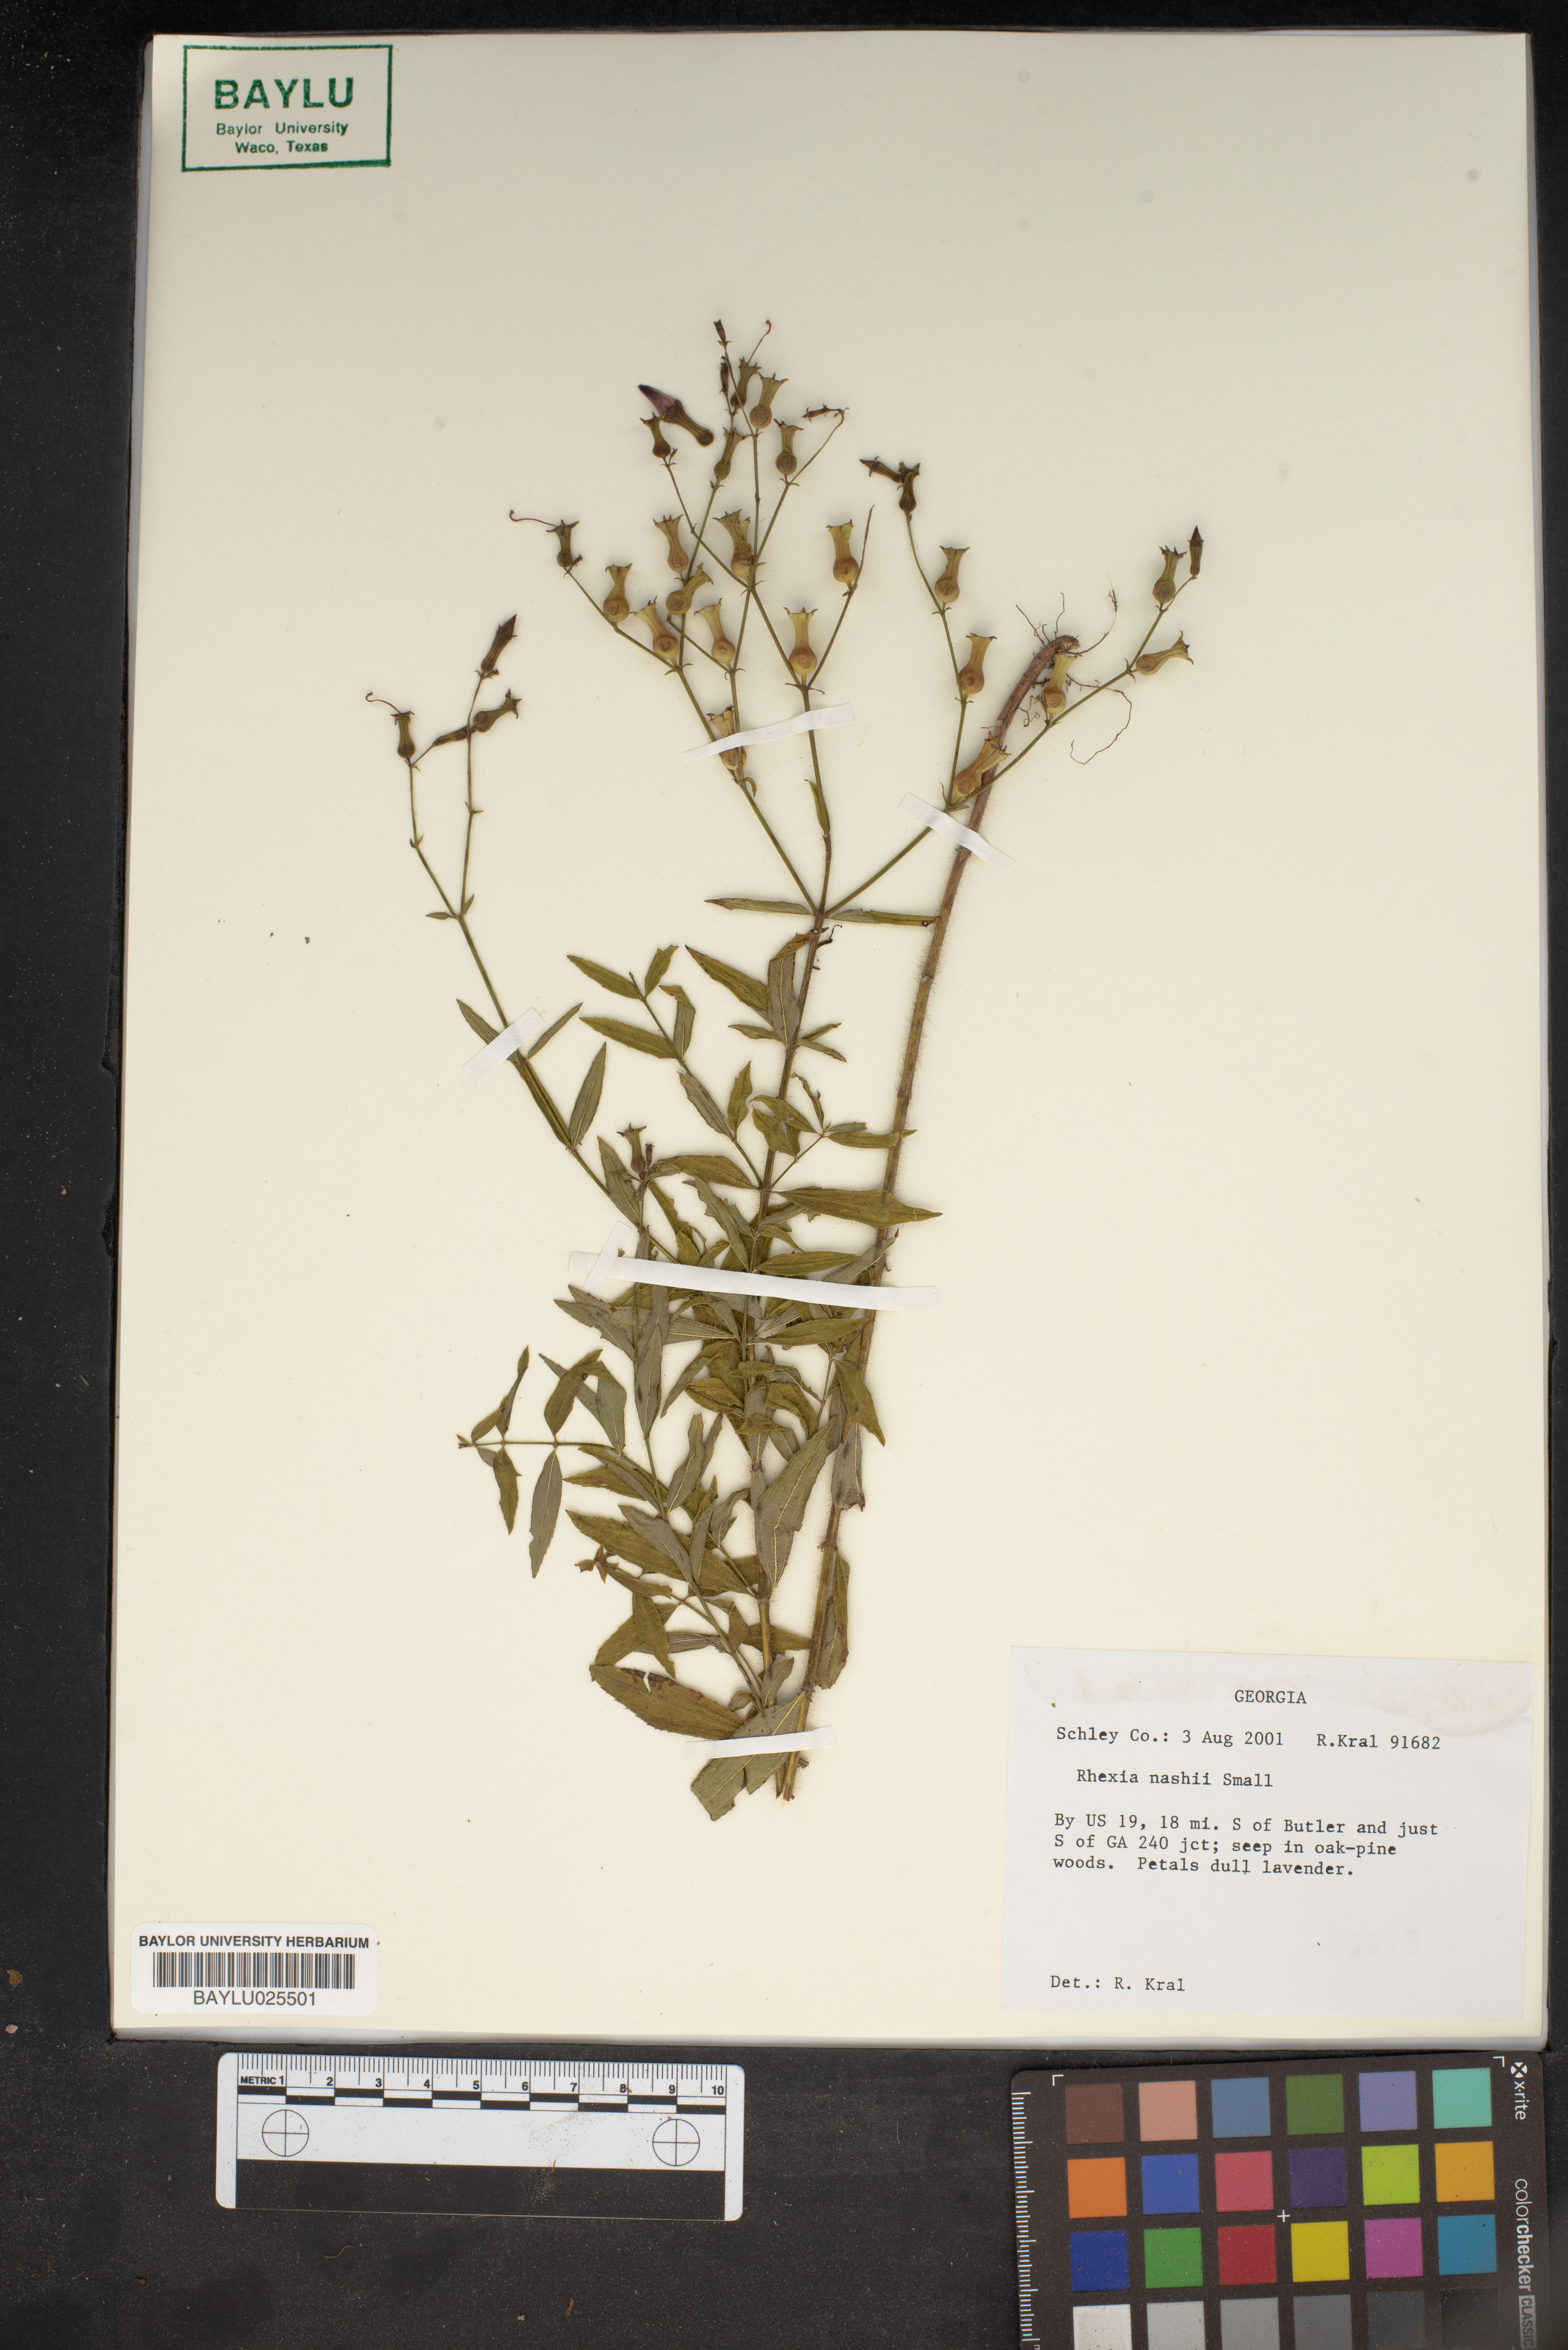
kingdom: Plantae
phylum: Tracheophyta
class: Magnoliopsida
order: Myrtales
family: Melastomataceae
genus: Rhexia
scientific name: Rhexia nashii
